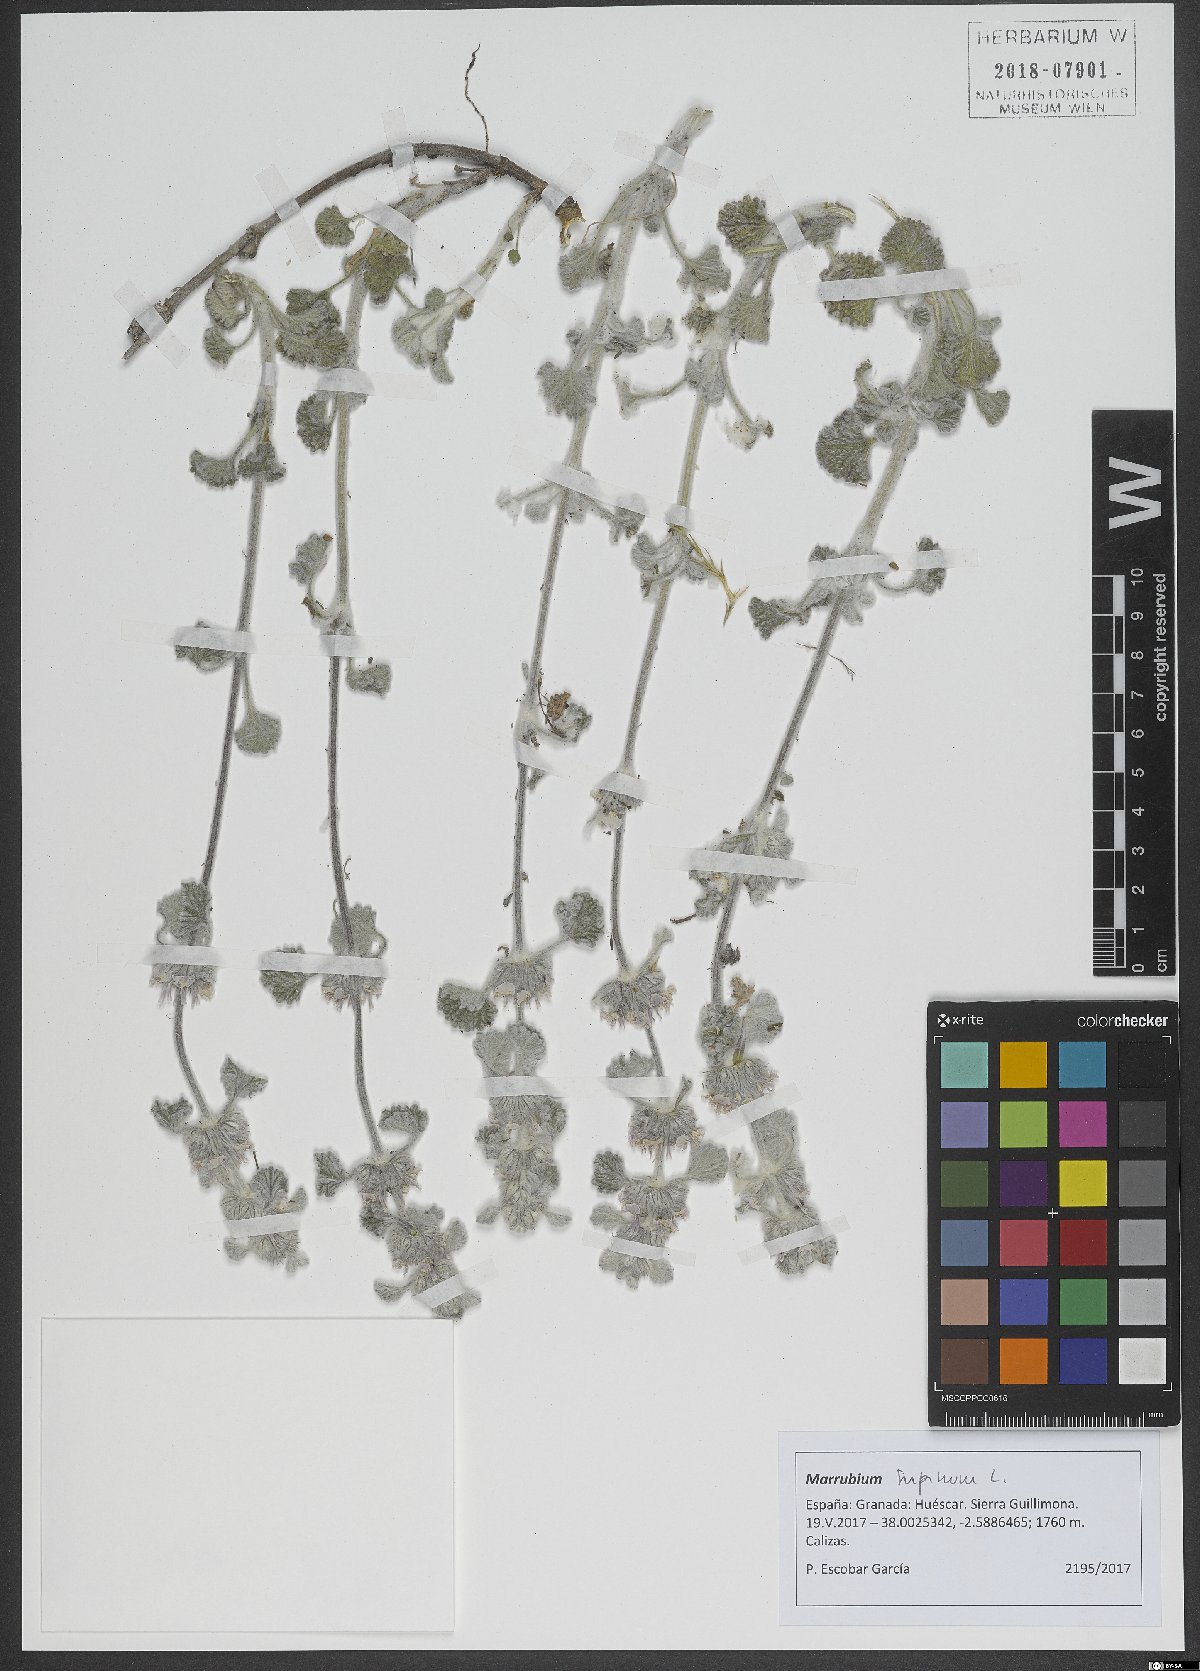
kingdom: Plantae
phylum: Tracheophyta
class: Magnoliopsida
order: Lamiales
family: Lamiaceae
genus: Marrubium
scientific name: Marrubium supinum
